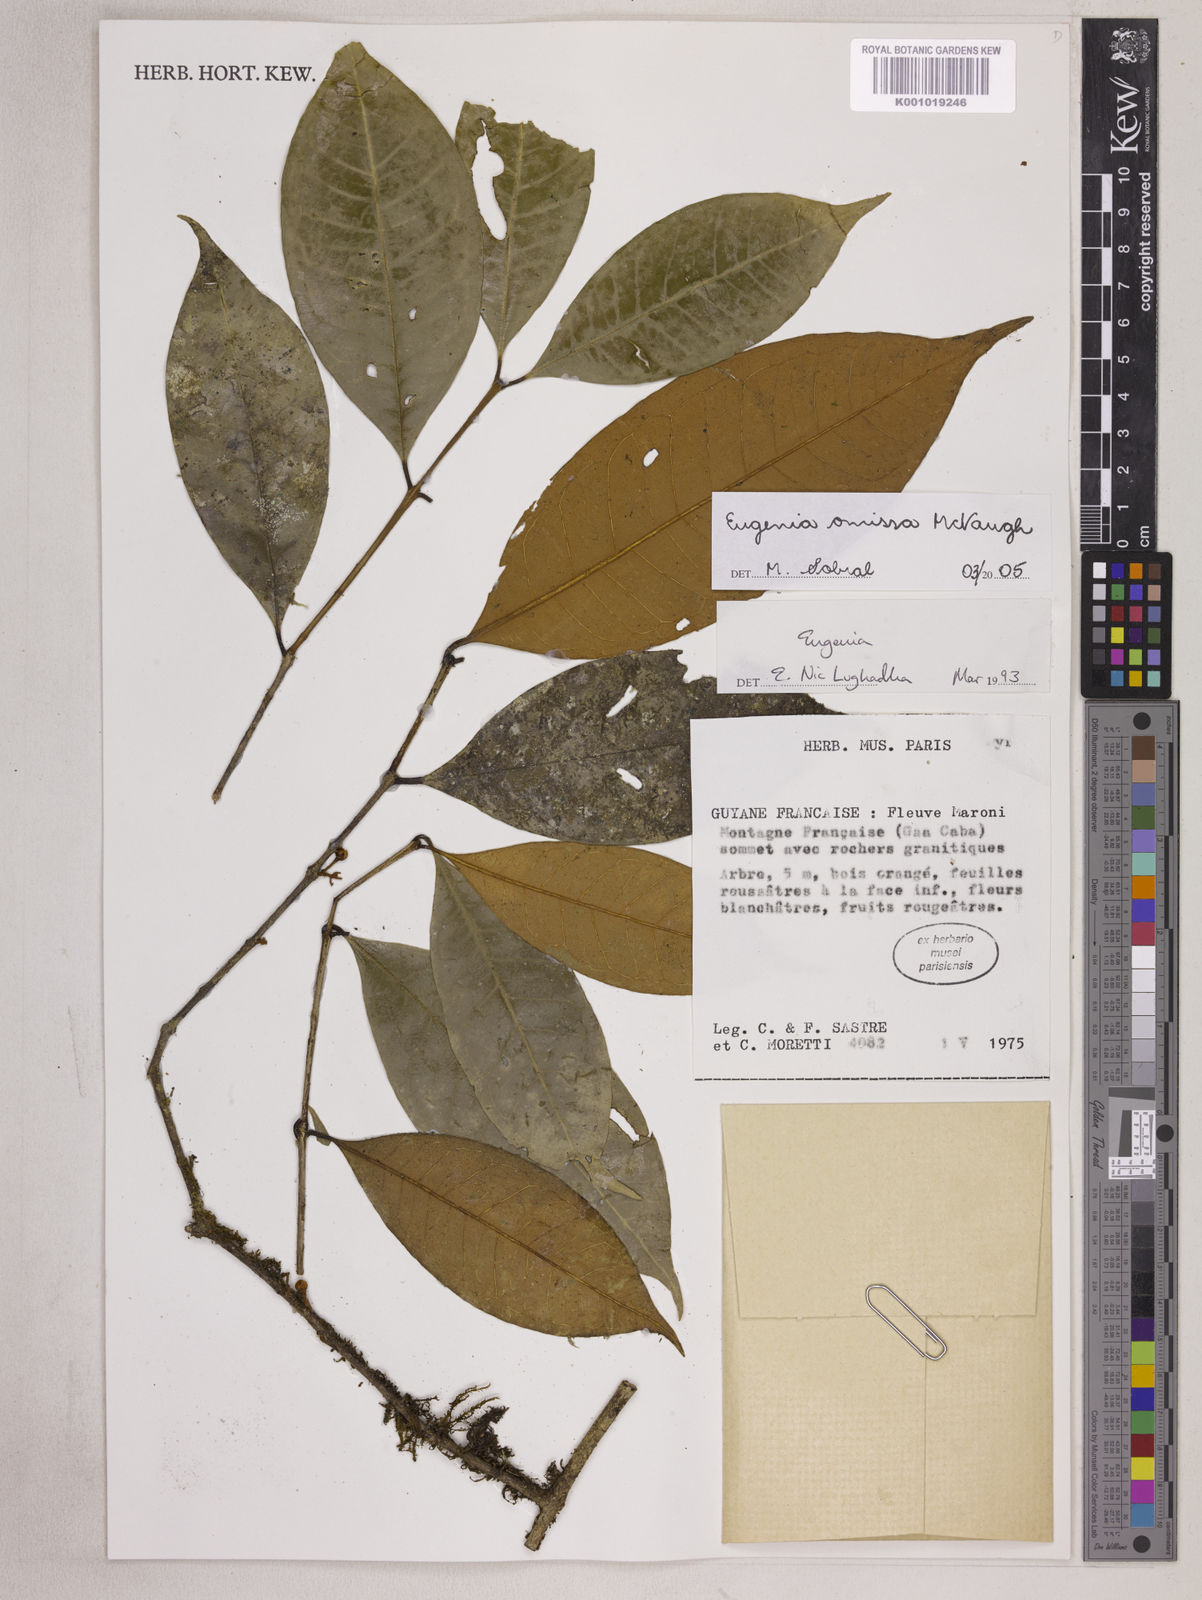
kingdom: Plantae
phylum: Tracheophyta
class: Magnoliopsida
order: Myrtales
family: Myrtaceae
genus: Eugenia
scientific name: Eugenia omissa
